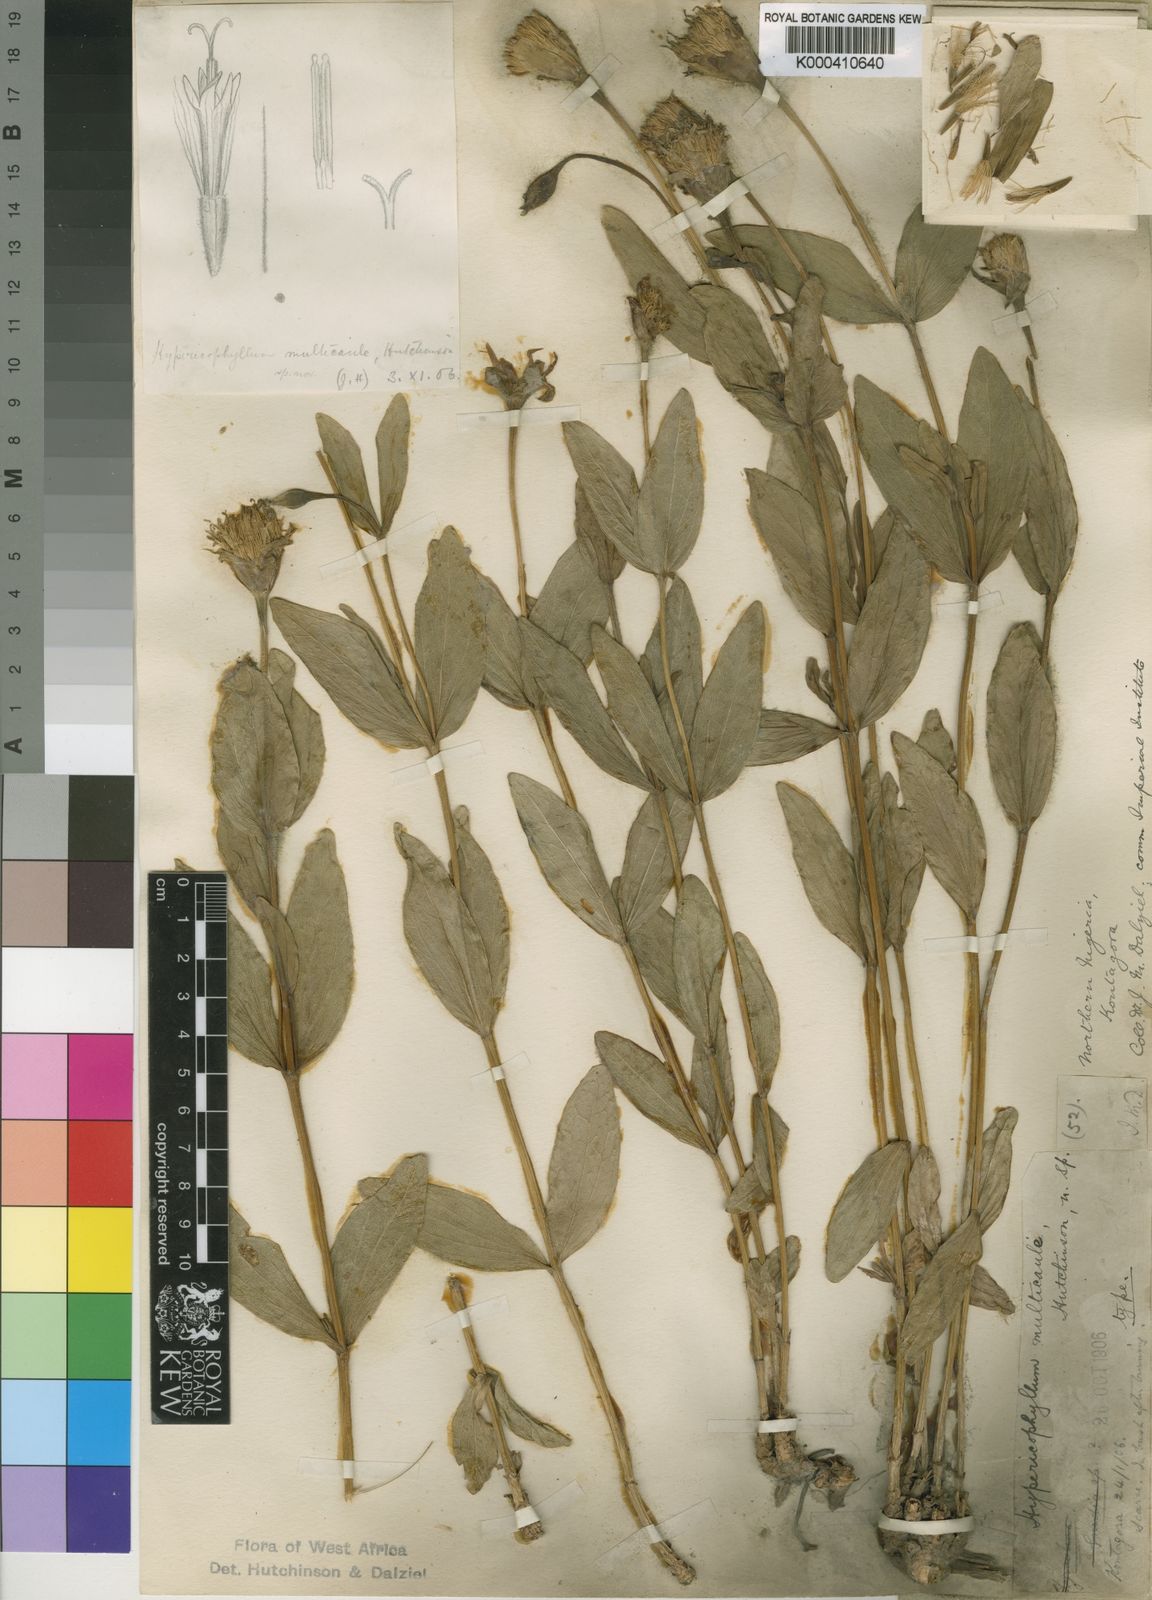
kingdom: Plantae
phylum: Tracheophyta
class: Magnoliopsida
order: Asterales
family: Asteraceae
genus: Hypericophyllum
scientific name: Hypericophyllum multicaule
